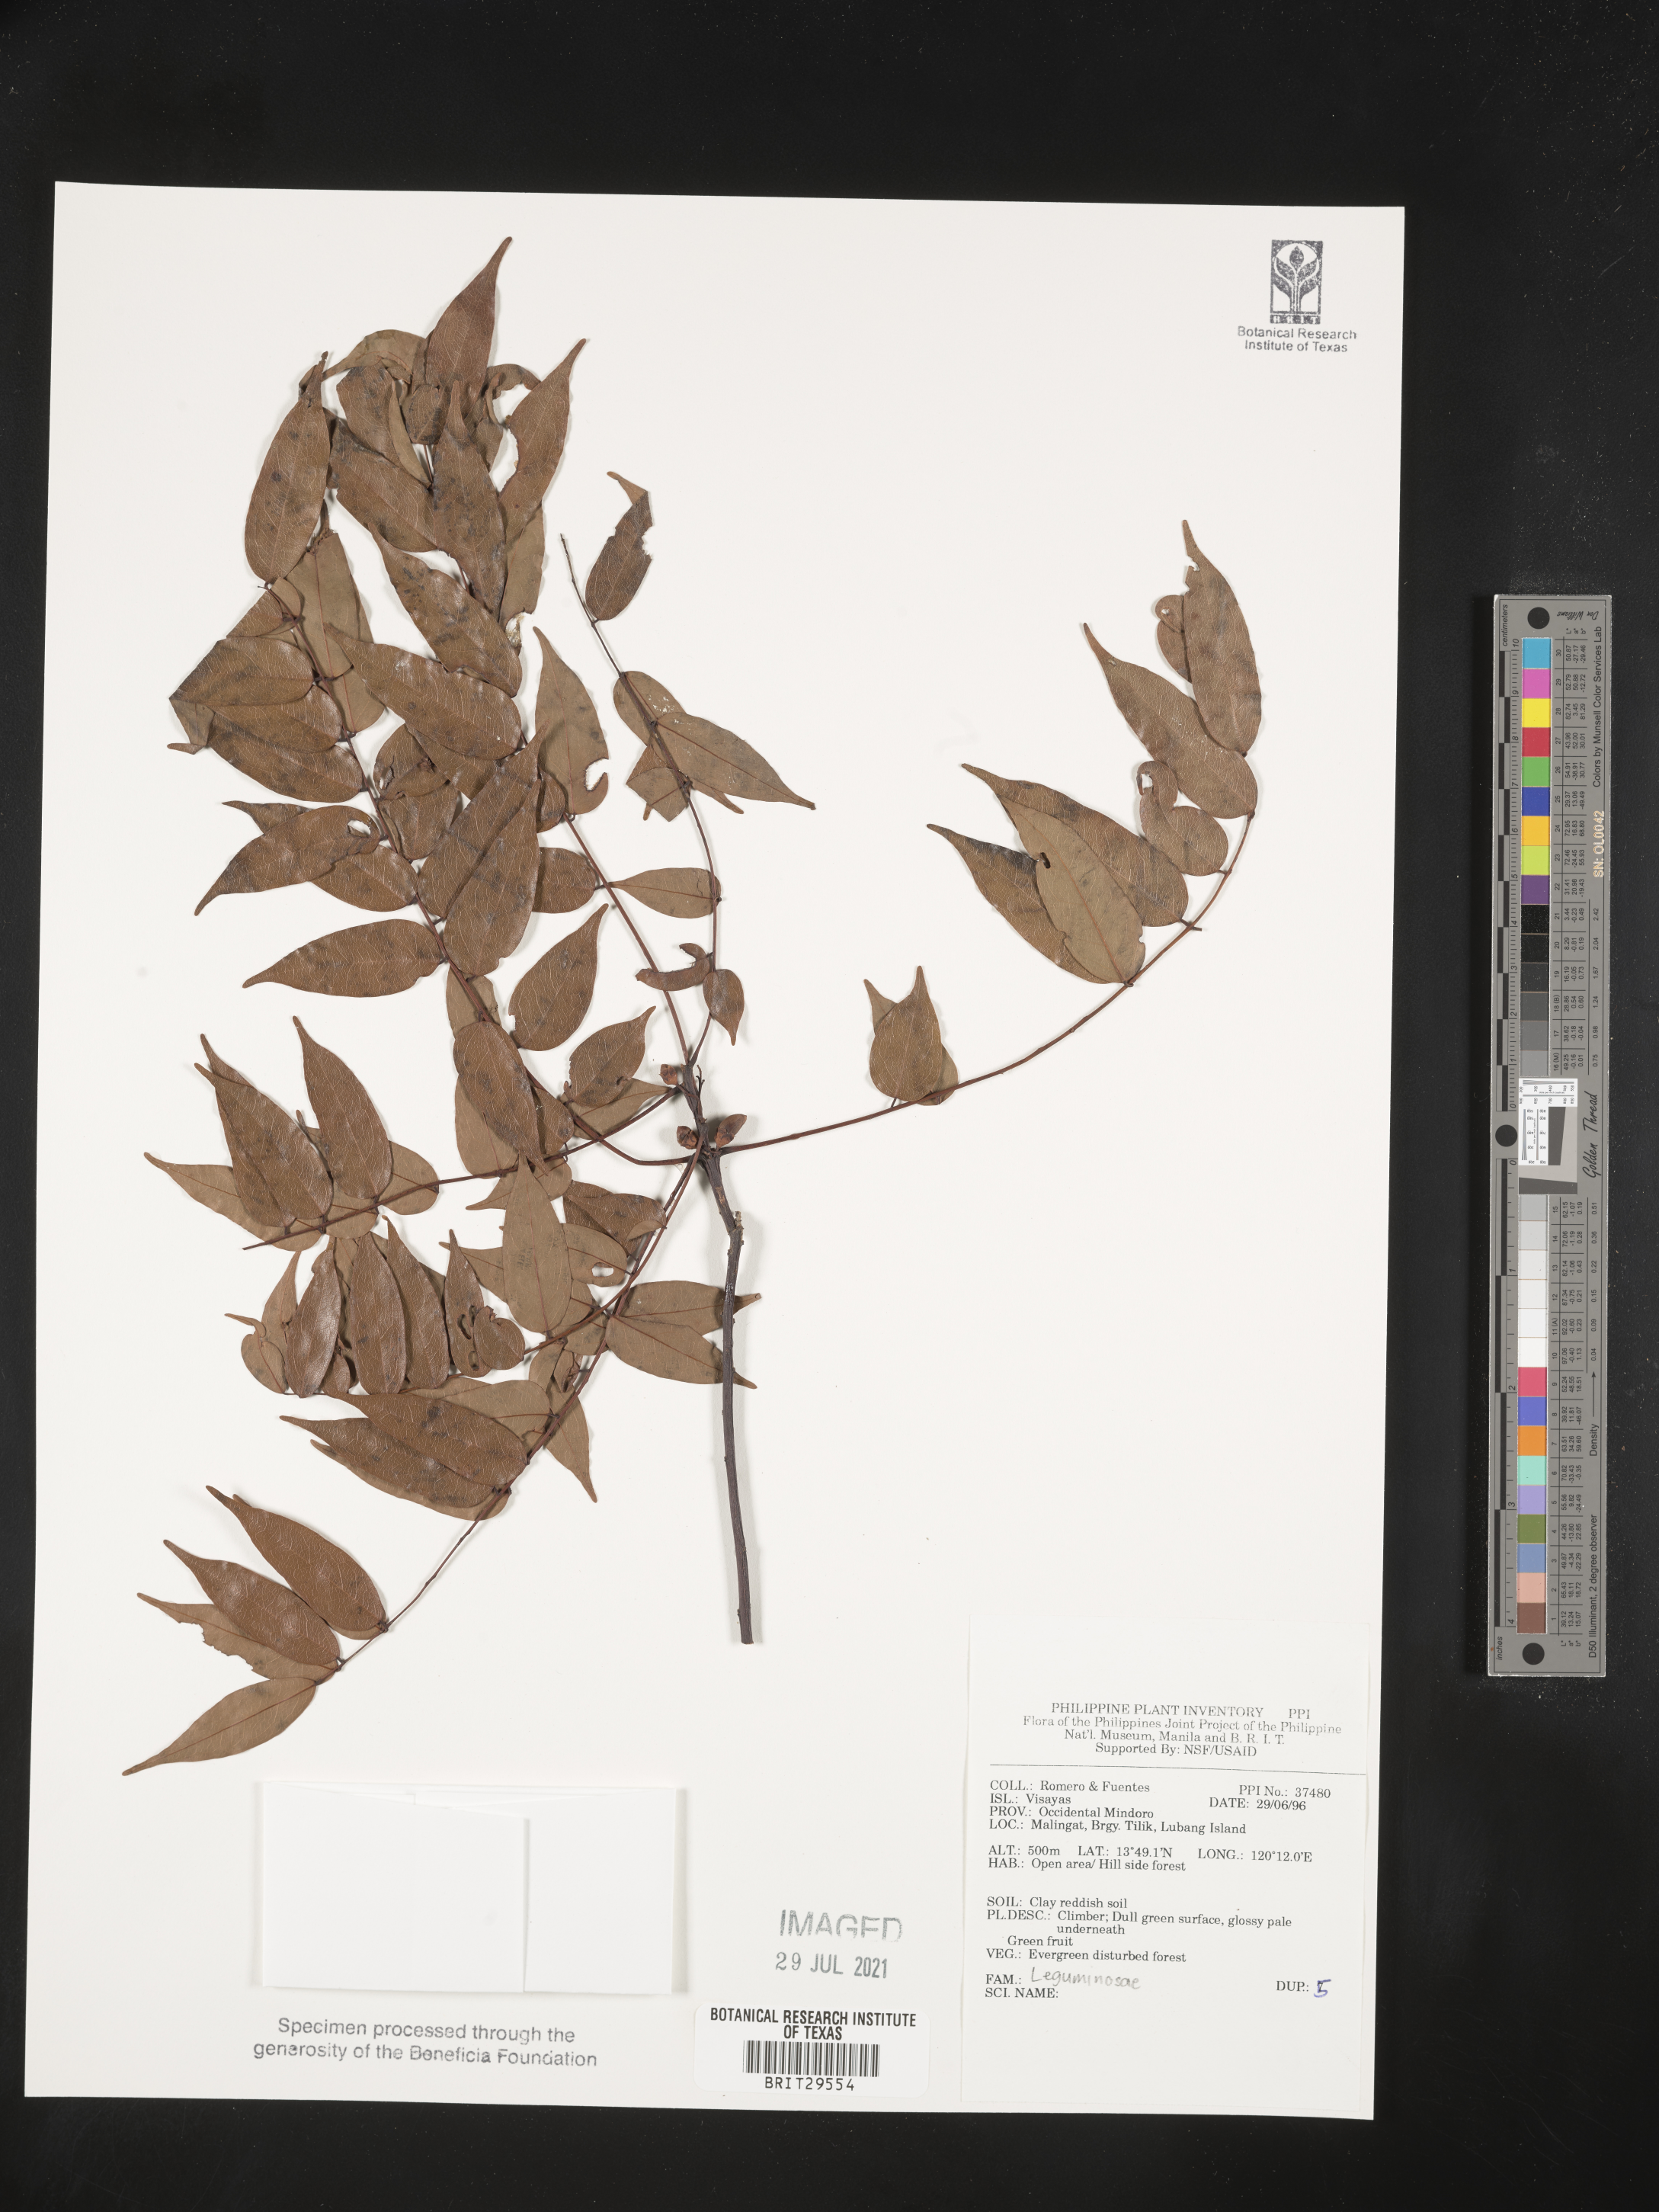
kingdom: Plantae
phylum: Tracheophyta
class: Magnoliopsida
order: Fabales
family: Fabaceae
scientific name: Fabaceae
